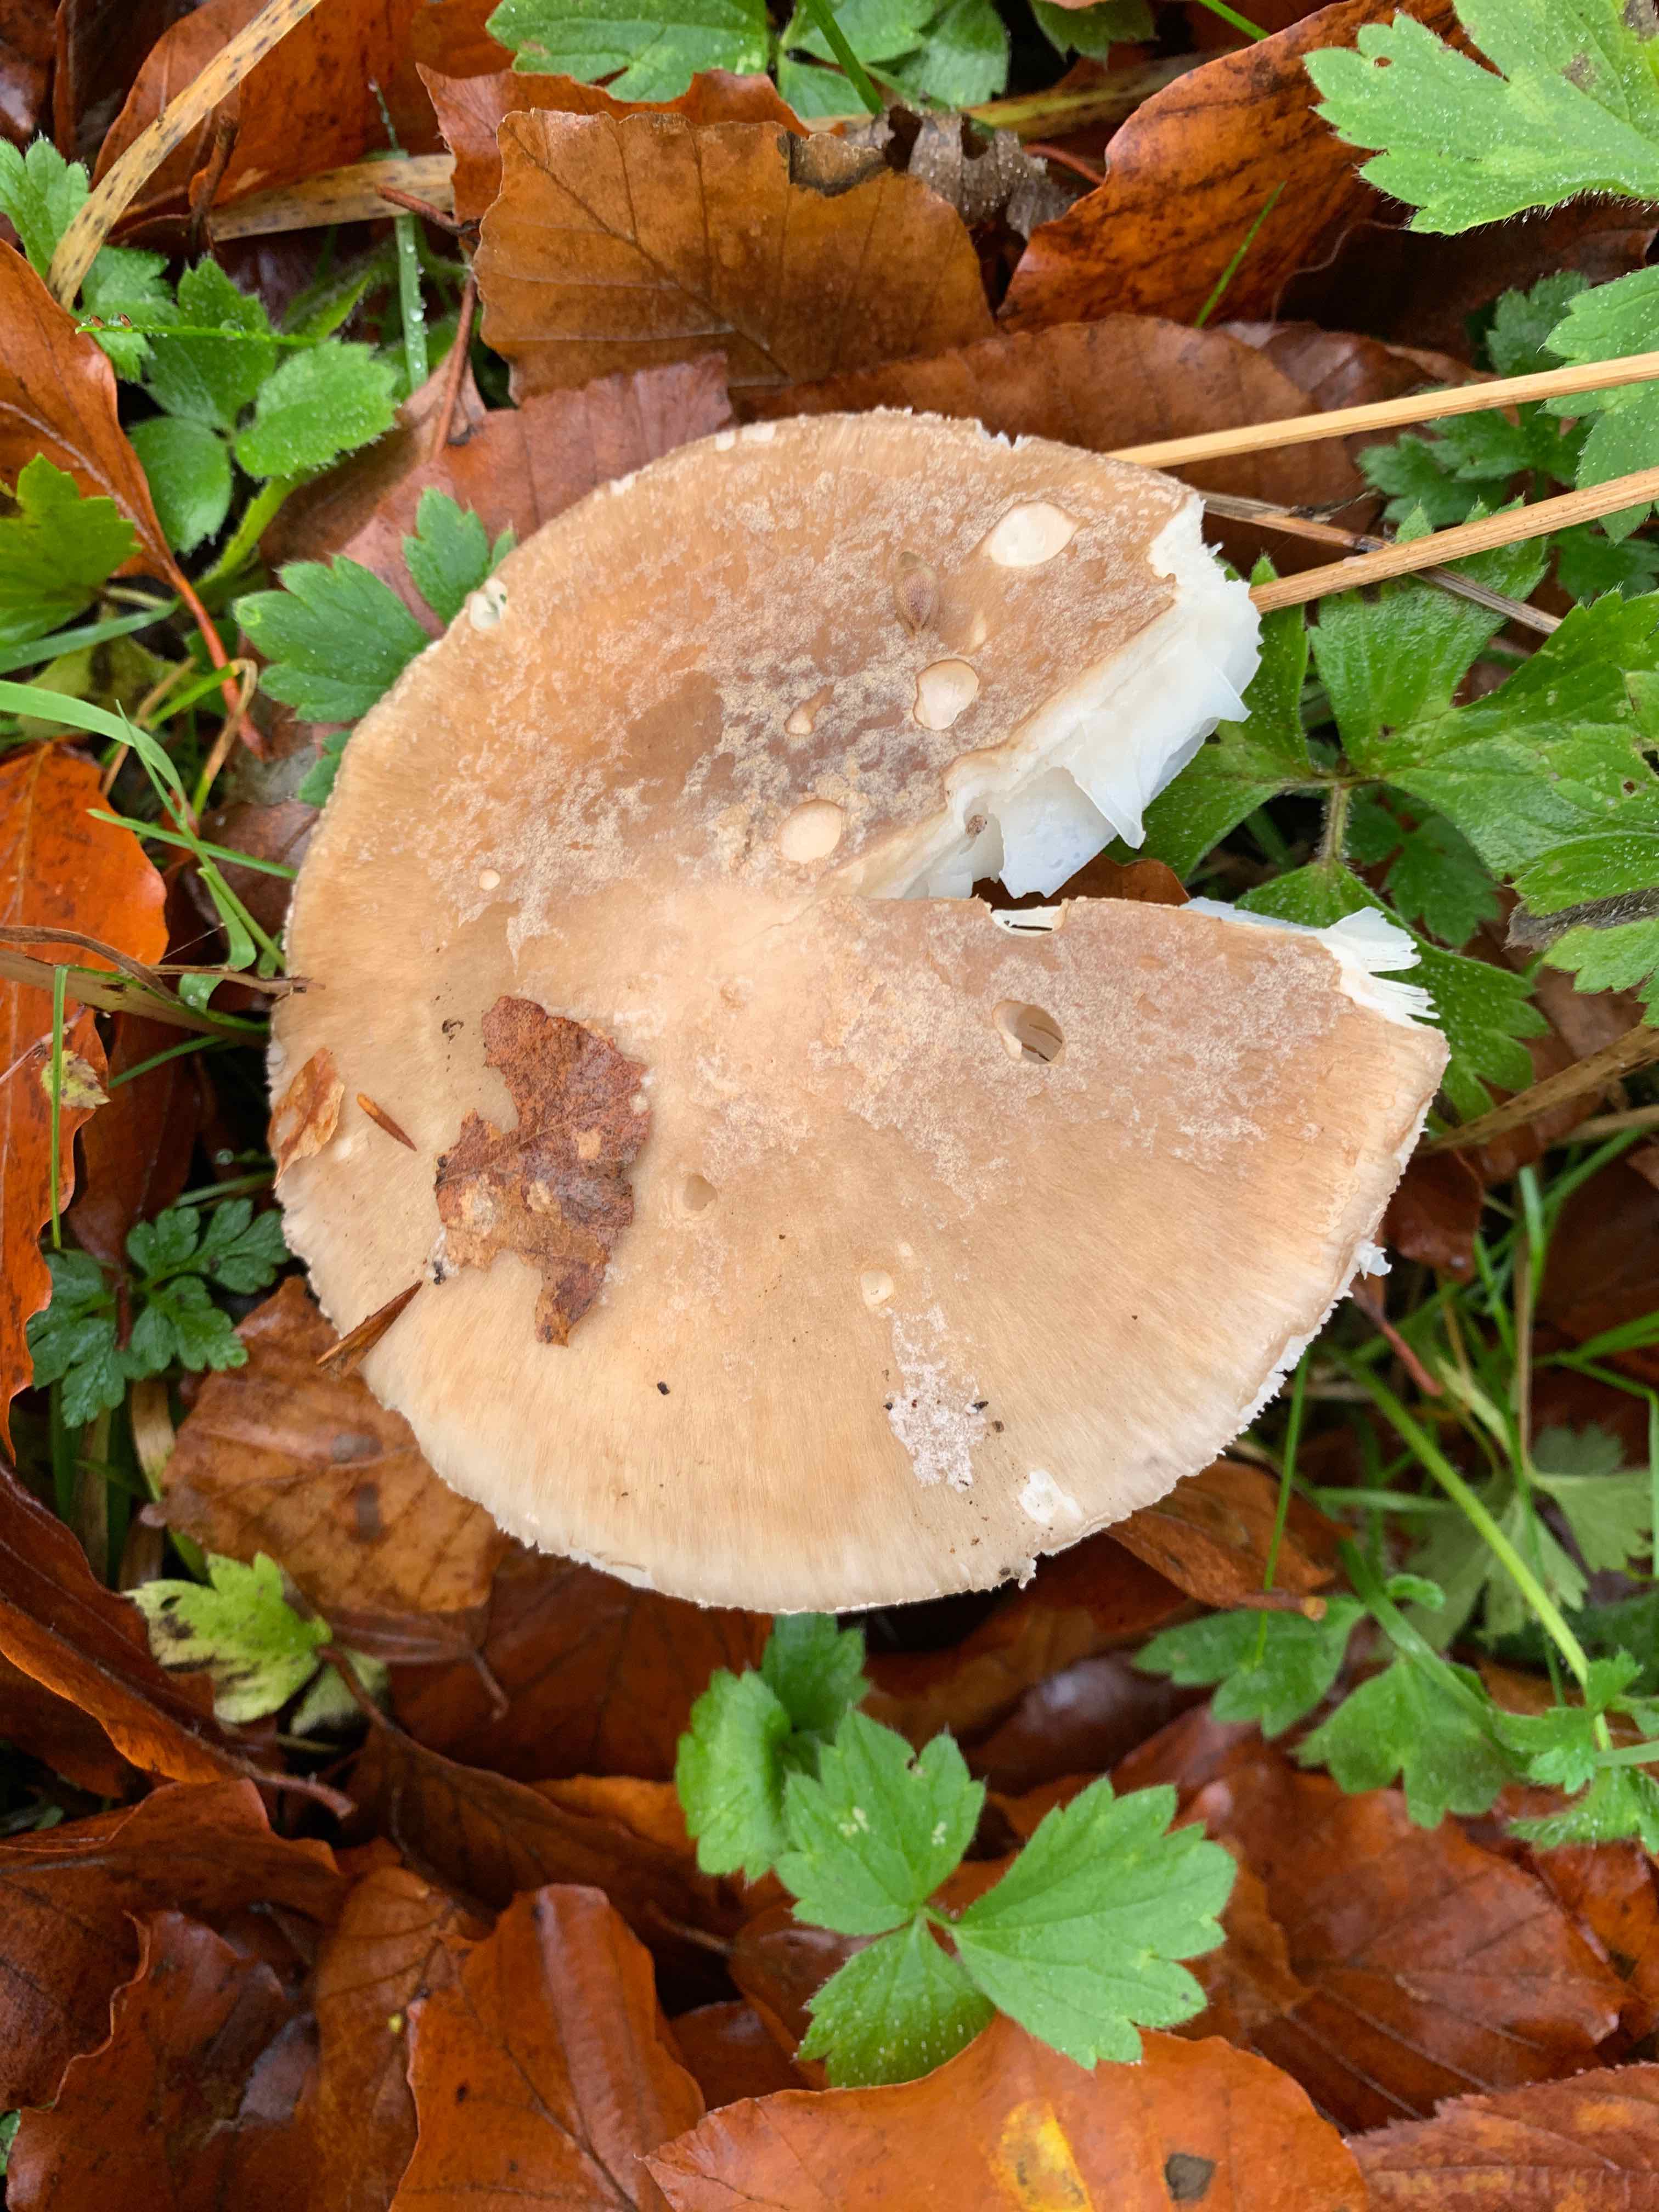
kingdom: Fungi
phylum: Basidiomycota
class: Agaricomycetes
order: Agaricales
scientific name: Agaricales
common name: champignonordenen
